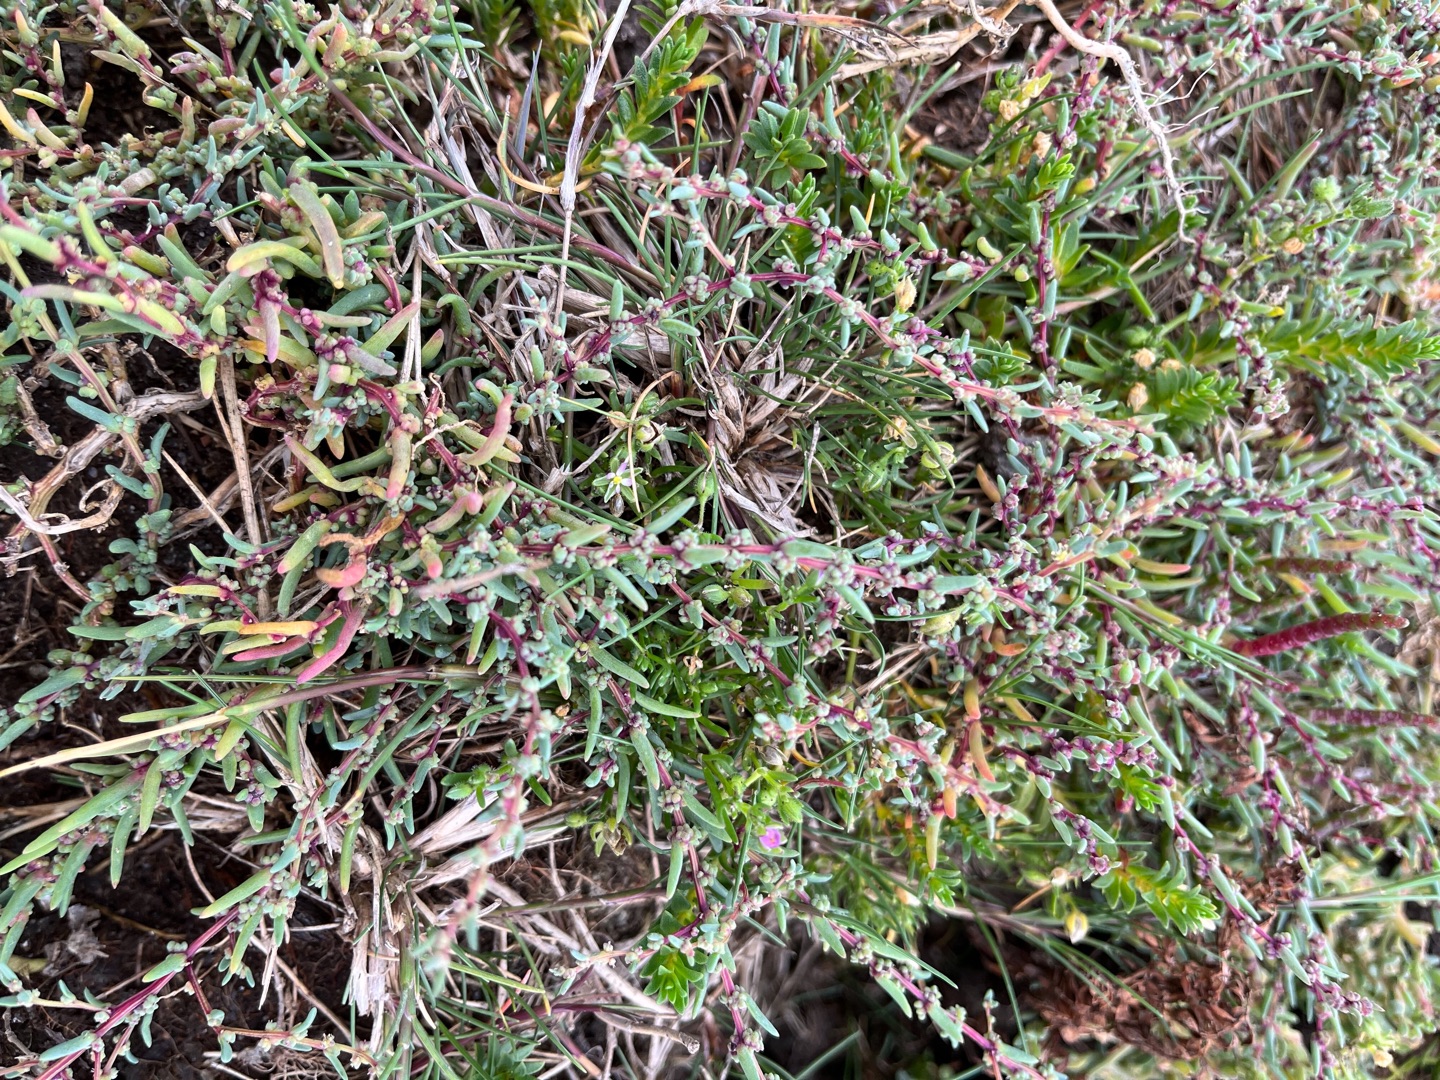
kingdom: Plantae
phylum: Tracheophyta
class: Magnoliopsida
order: Caryophyllales
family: Amaranthaceae
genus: Suaeda
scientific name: Suaeda maritima
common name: Strandgåsefod
